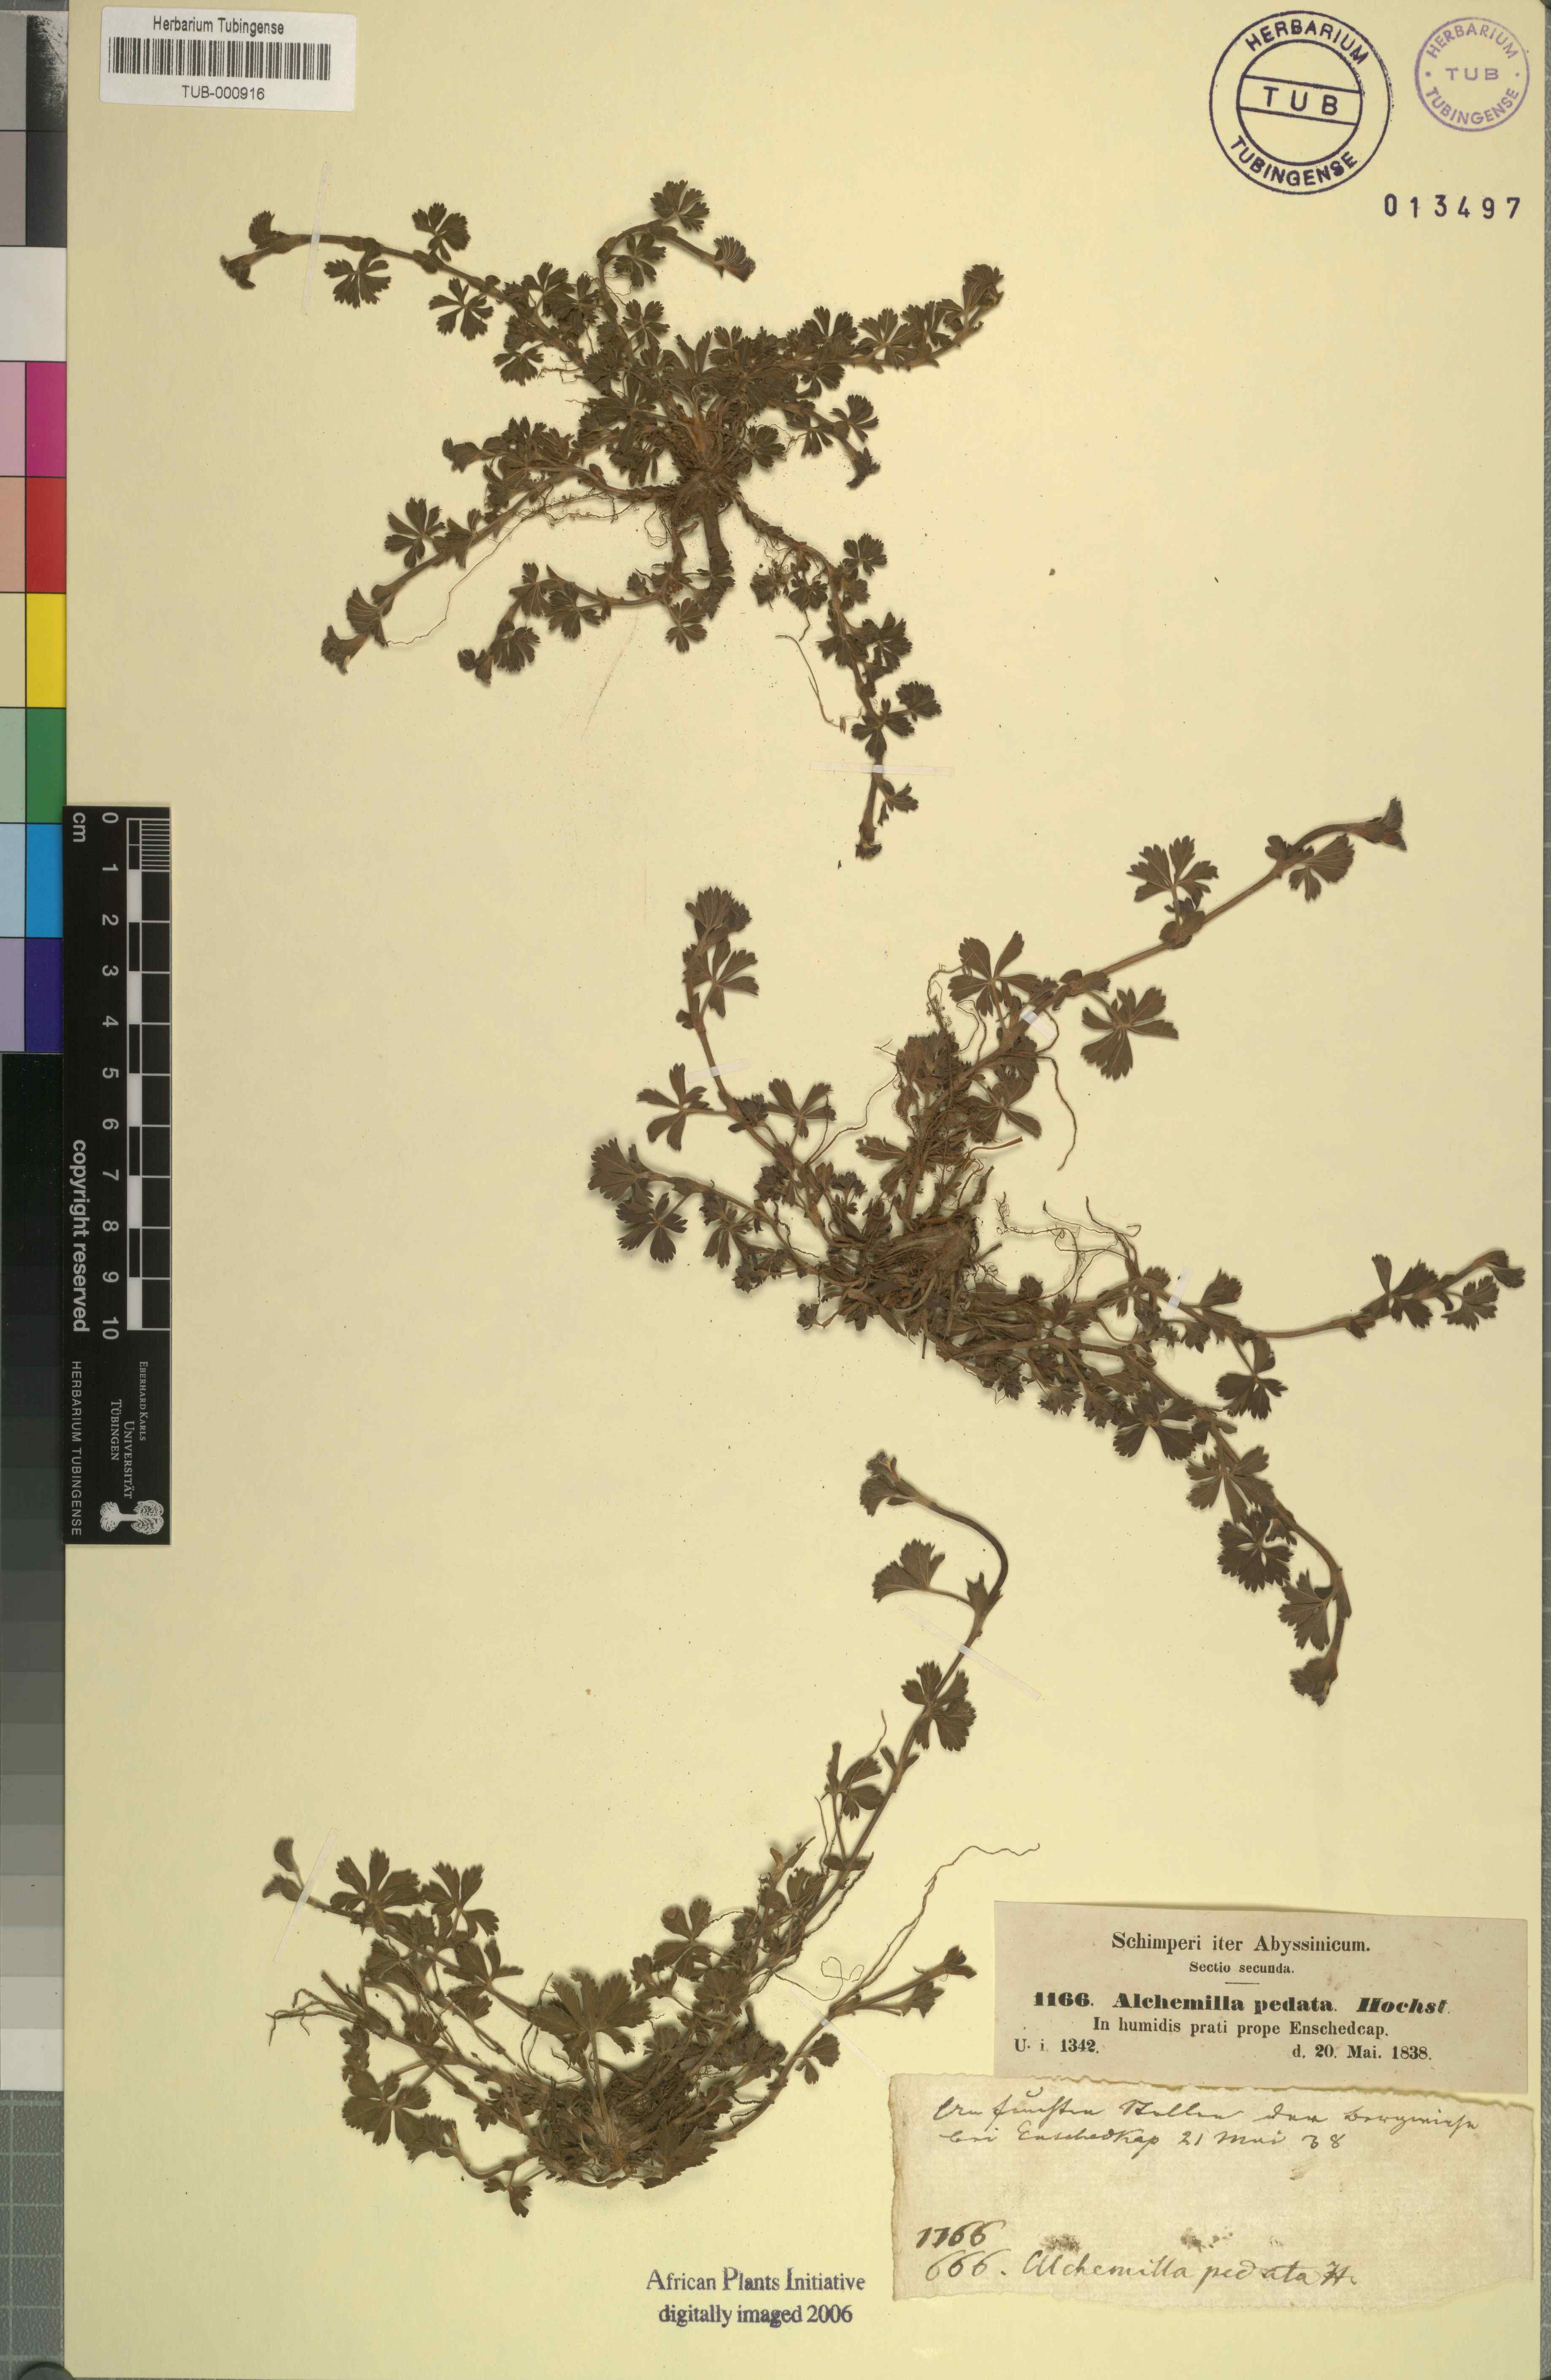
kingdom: Plantae
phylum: Tracheophyta
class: Magnoliopsida
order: Rosales
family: Rosaceae
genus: Alchemilla
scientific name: Alchemilla pedata
